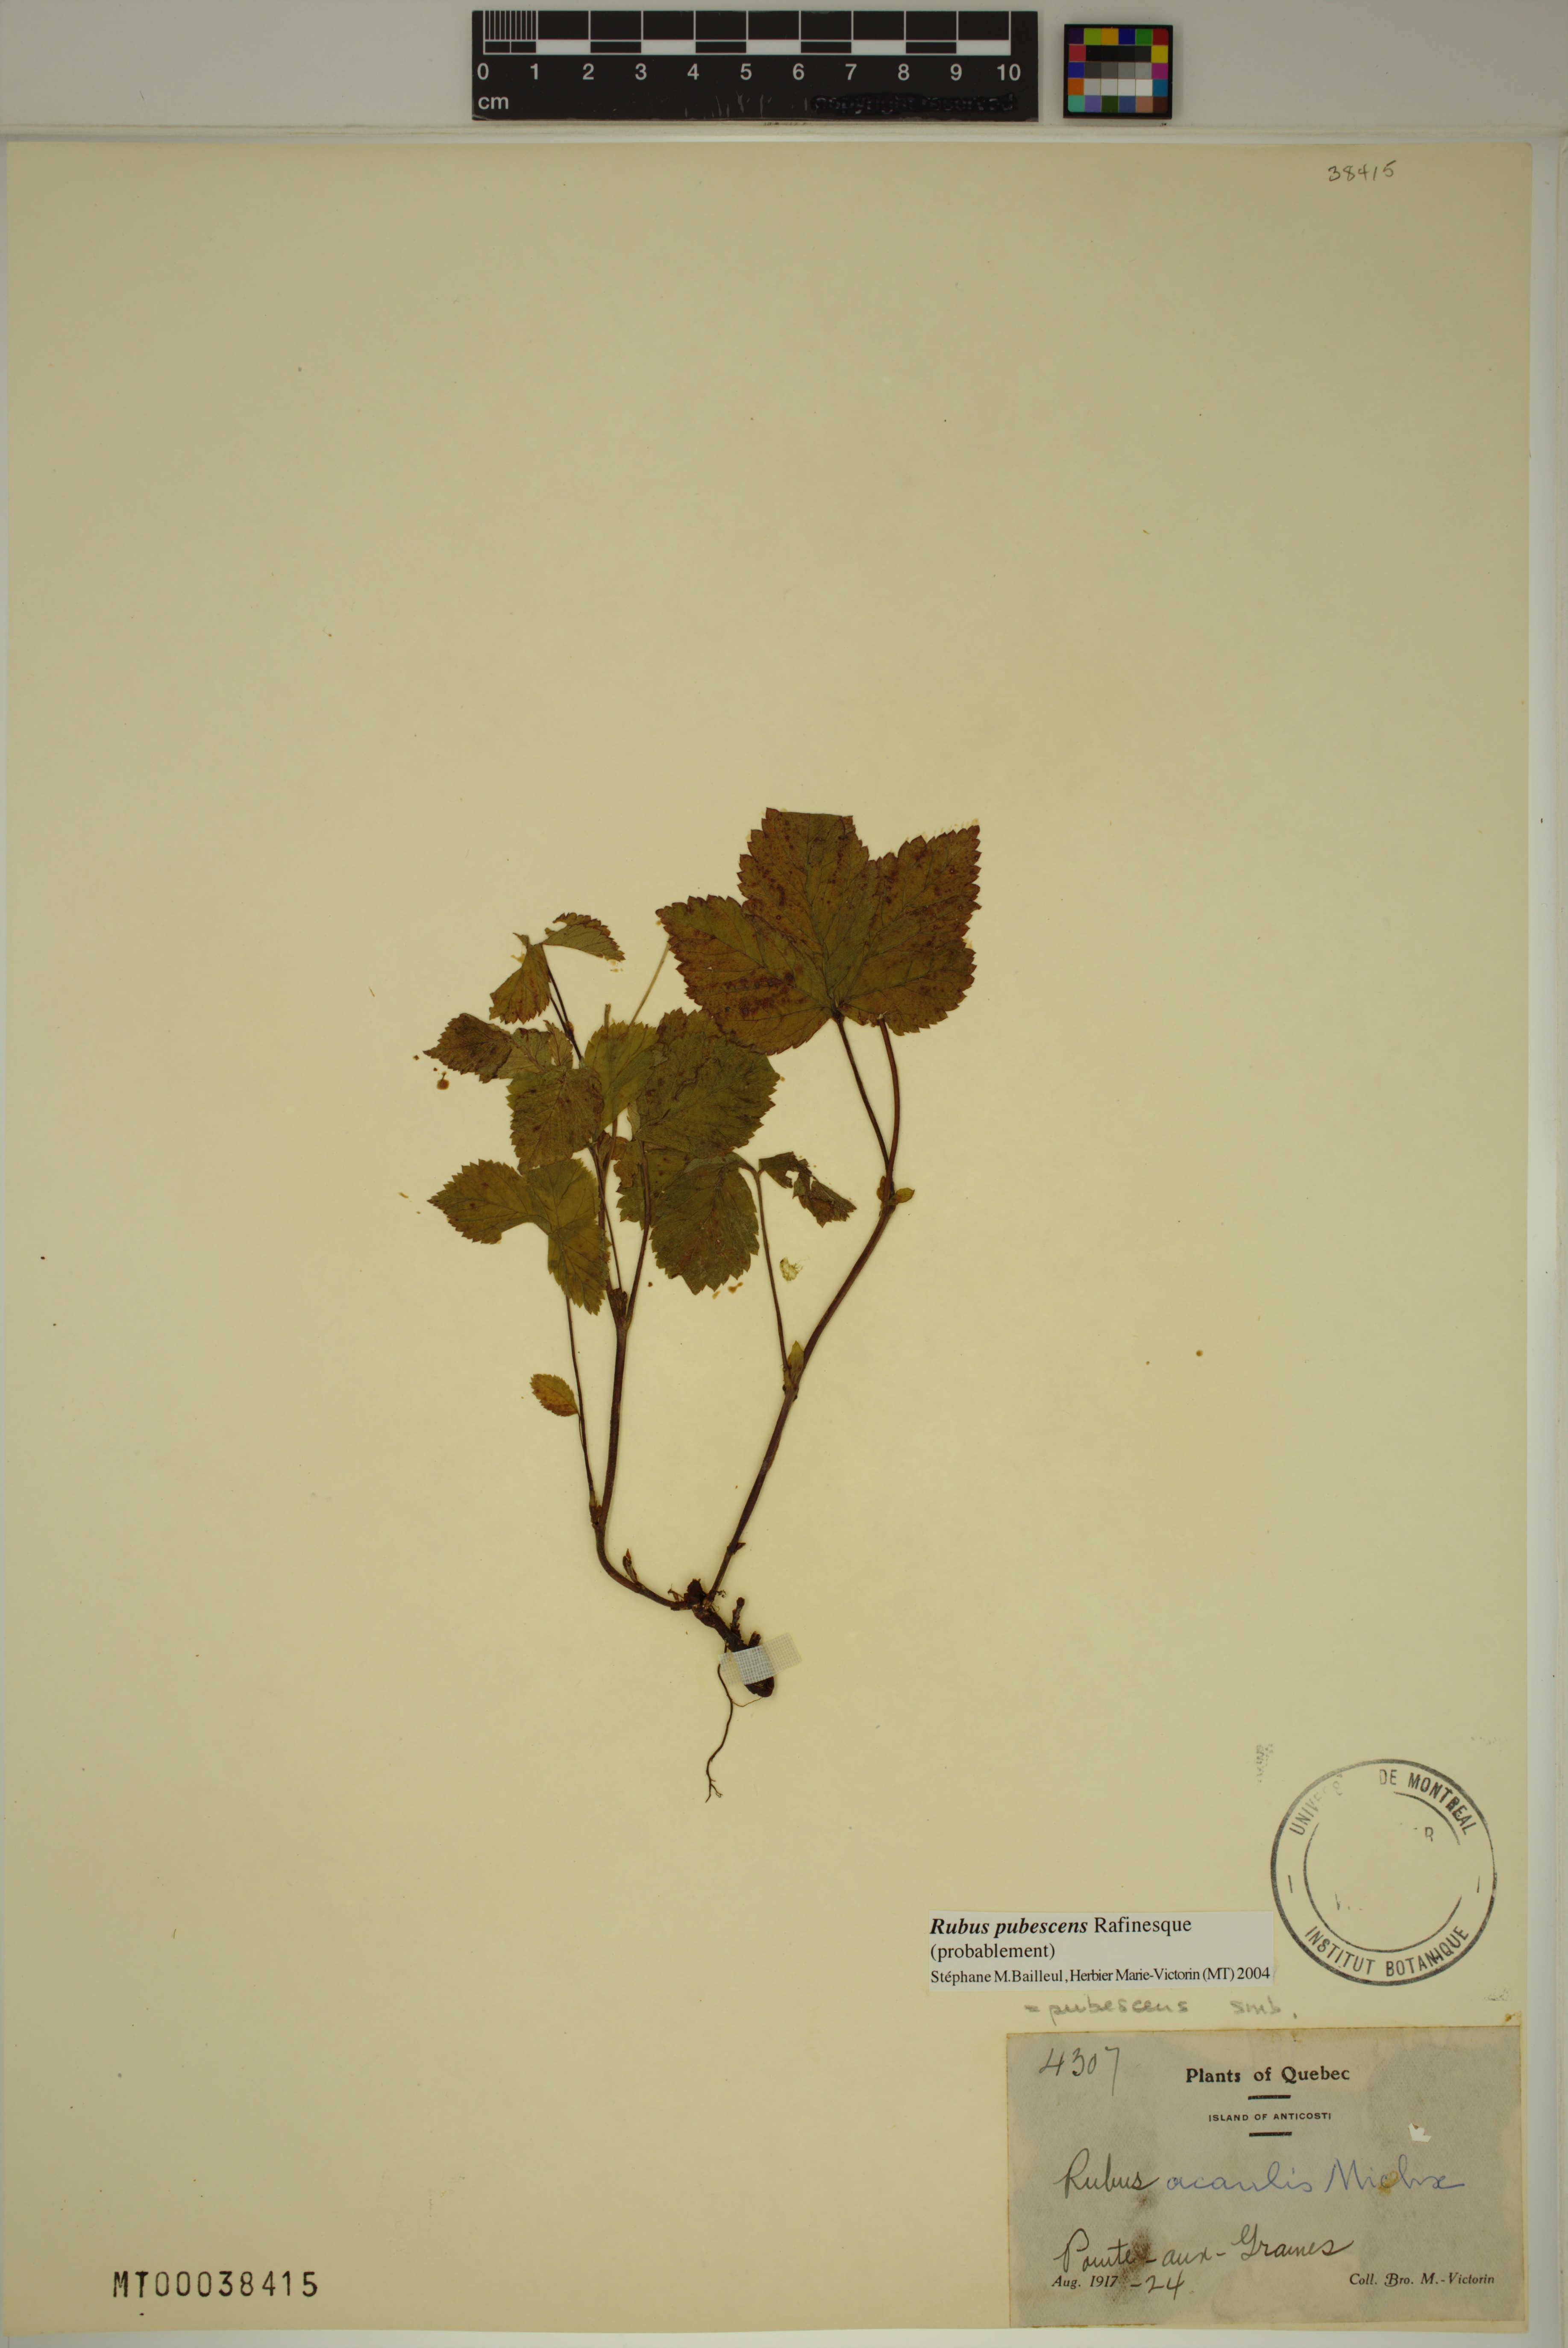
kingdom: Plantae
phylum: Tracheophyta
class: Magnoliopsida
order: Rosales
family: Rosaceae
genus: Rubus
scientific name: Rubus pubescens
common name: Dwarf raspberry
